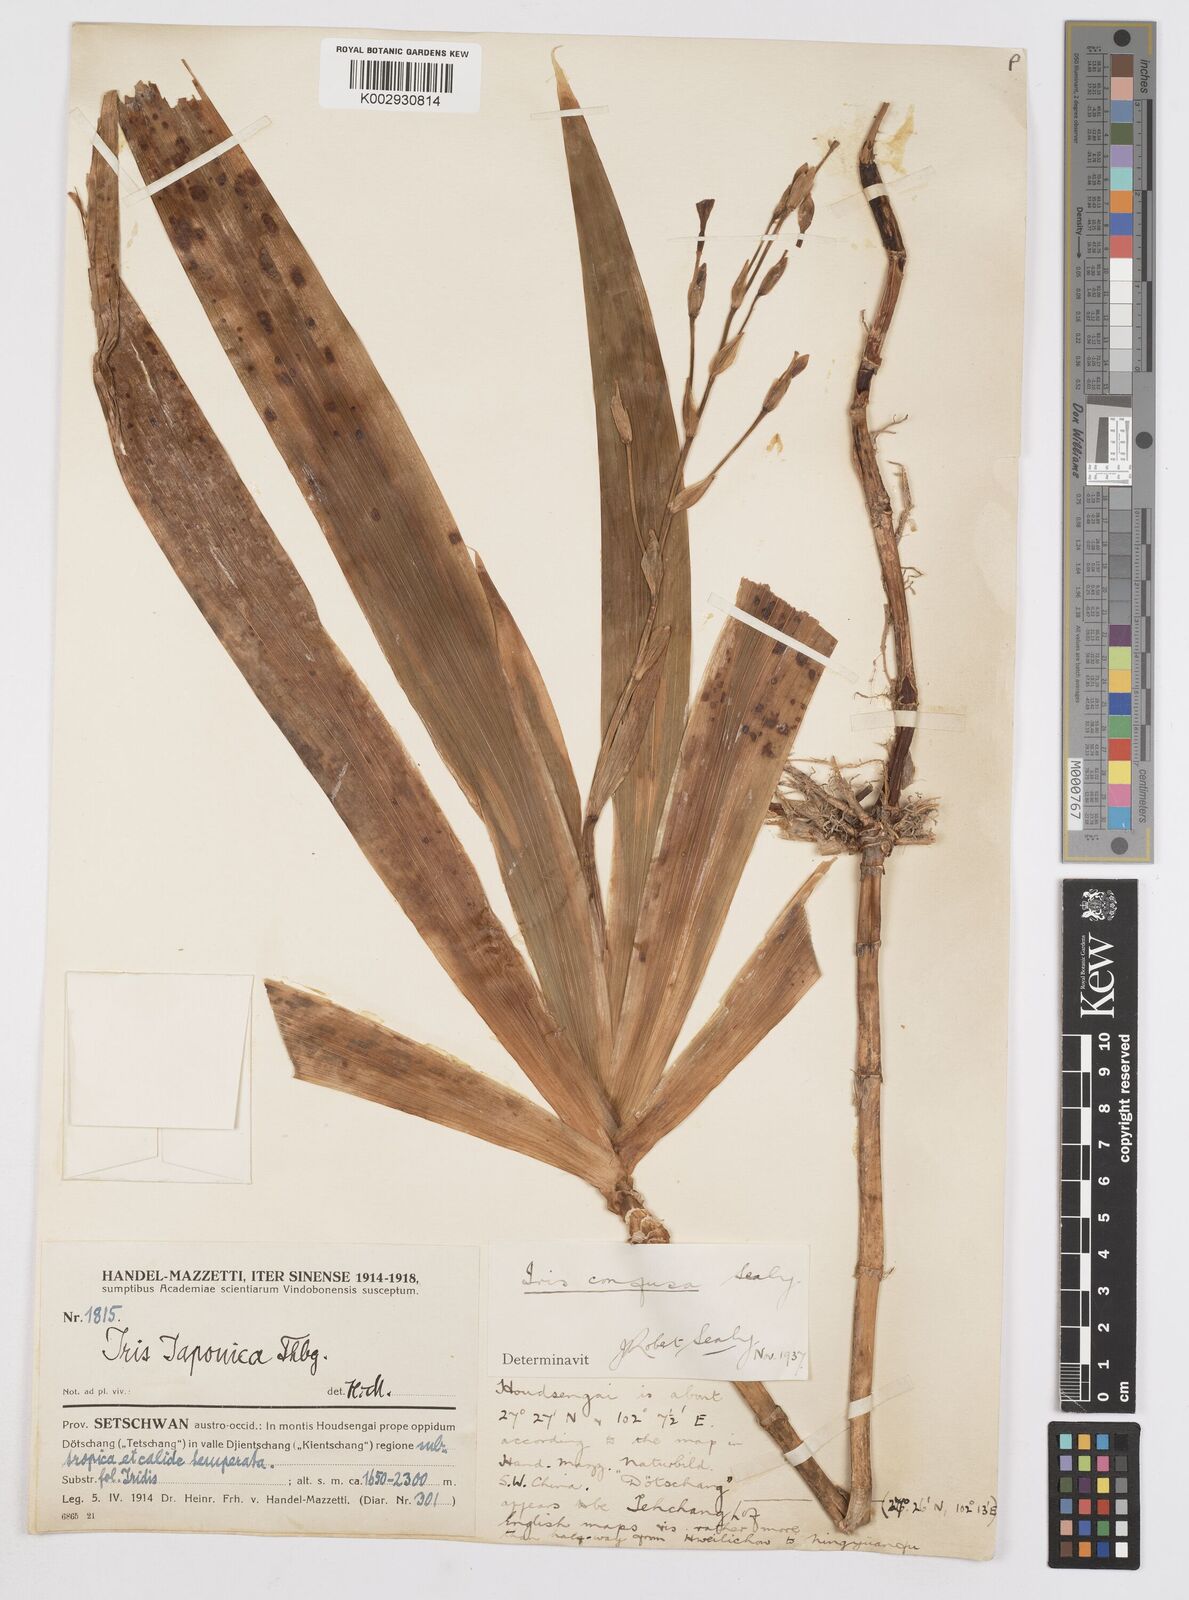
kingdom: Plantae
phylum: Tracheophyta
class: Liliopsida
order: Asparagales
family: Iridaceae
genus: Iris
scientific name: Iris
